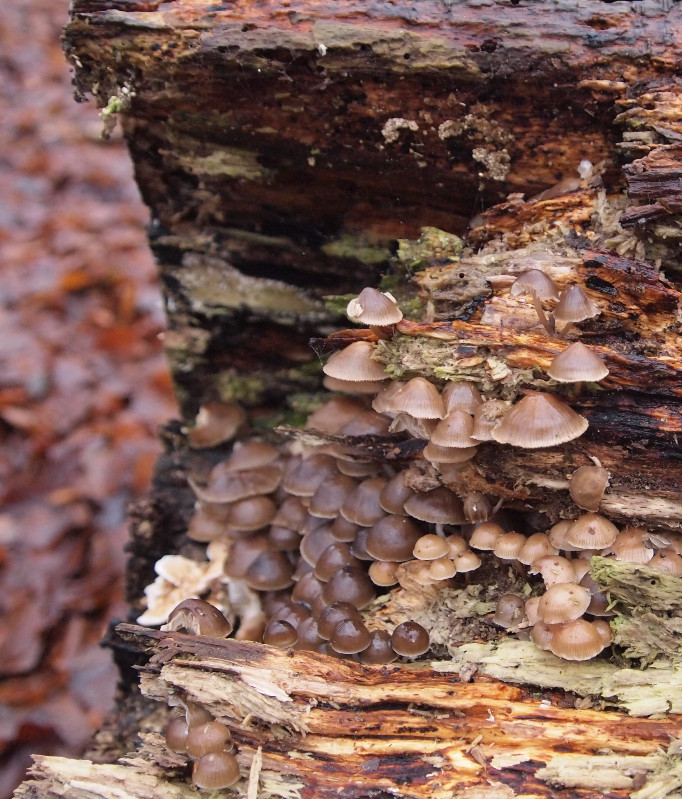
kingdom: Fungi
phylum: Basidiomycota
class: Agaricomycetes
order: Agaricales
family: Mycenaceae
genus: Mycena
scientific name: Mycena tintinnabulum
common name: vinter-huesvamp
